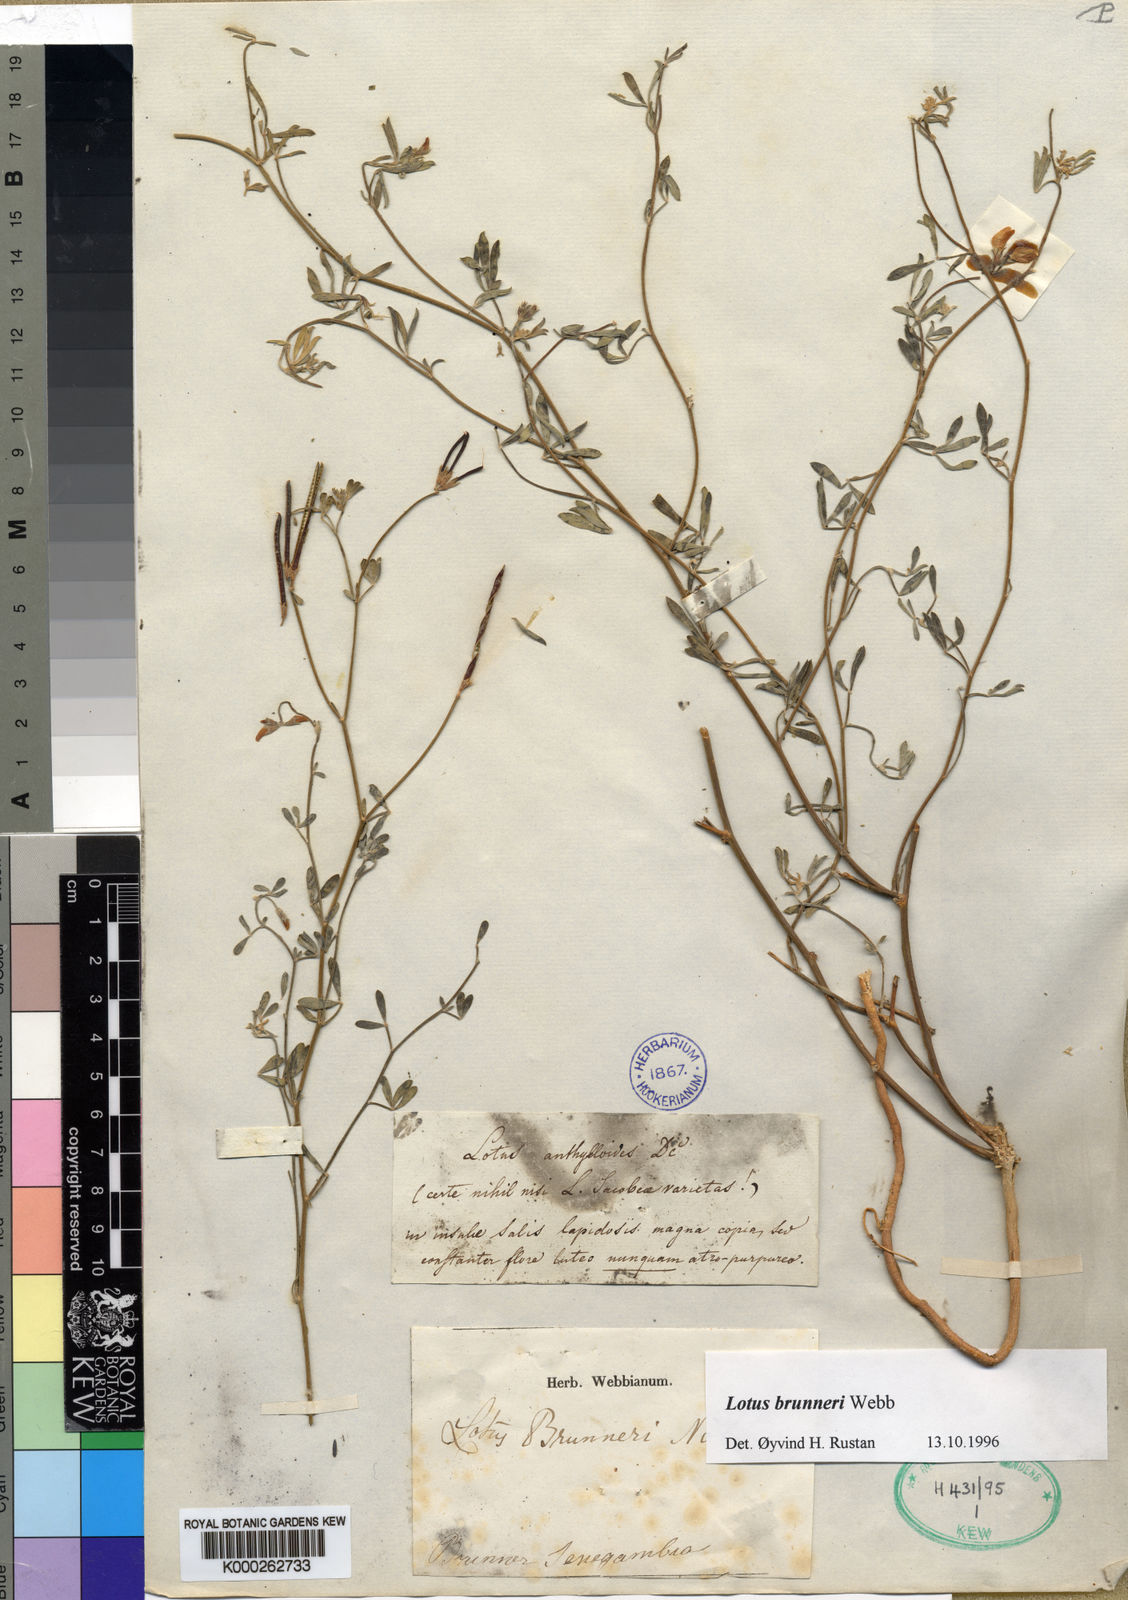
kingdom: Plantae
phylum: Tracheophyta
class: Magnoliopsida
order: Fabales
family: Fabaceae
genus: Lotus
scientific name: Lotus brunneri
